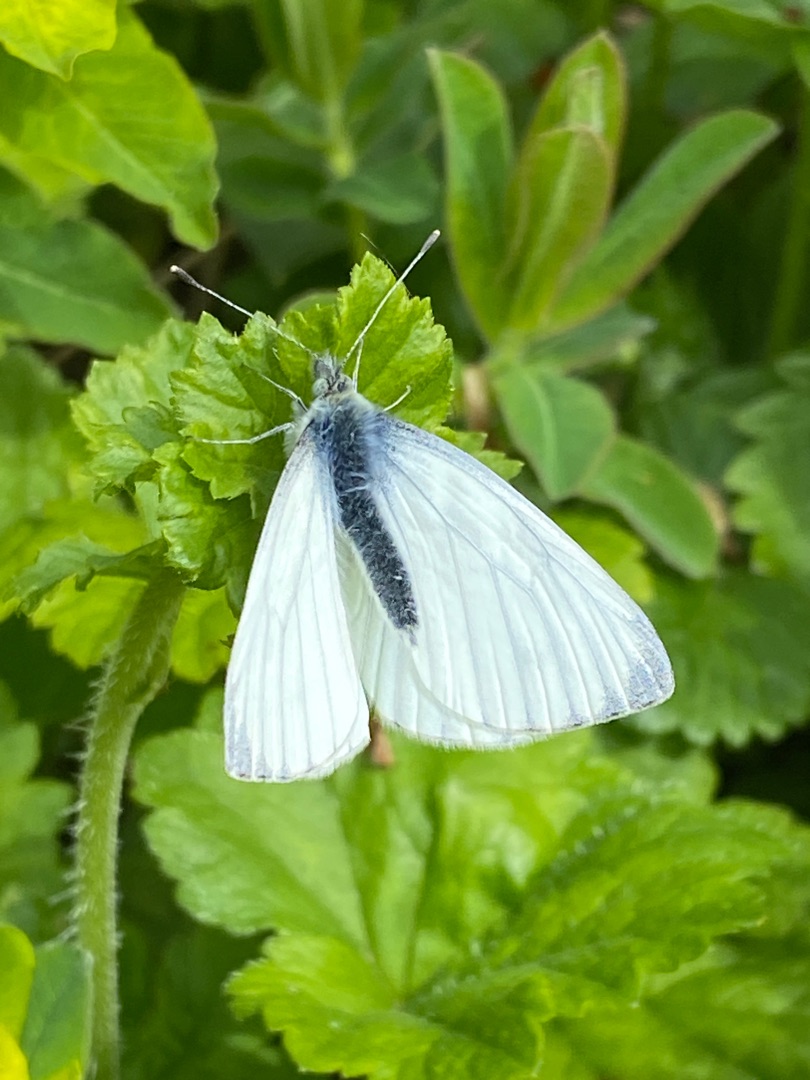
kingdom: Animalia
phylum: Arthropoda
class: Insecta
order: Lepidoptera
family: Pieridae
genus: Pieris
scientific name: Pieris napi
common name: Grønåret kålsommerfugl
